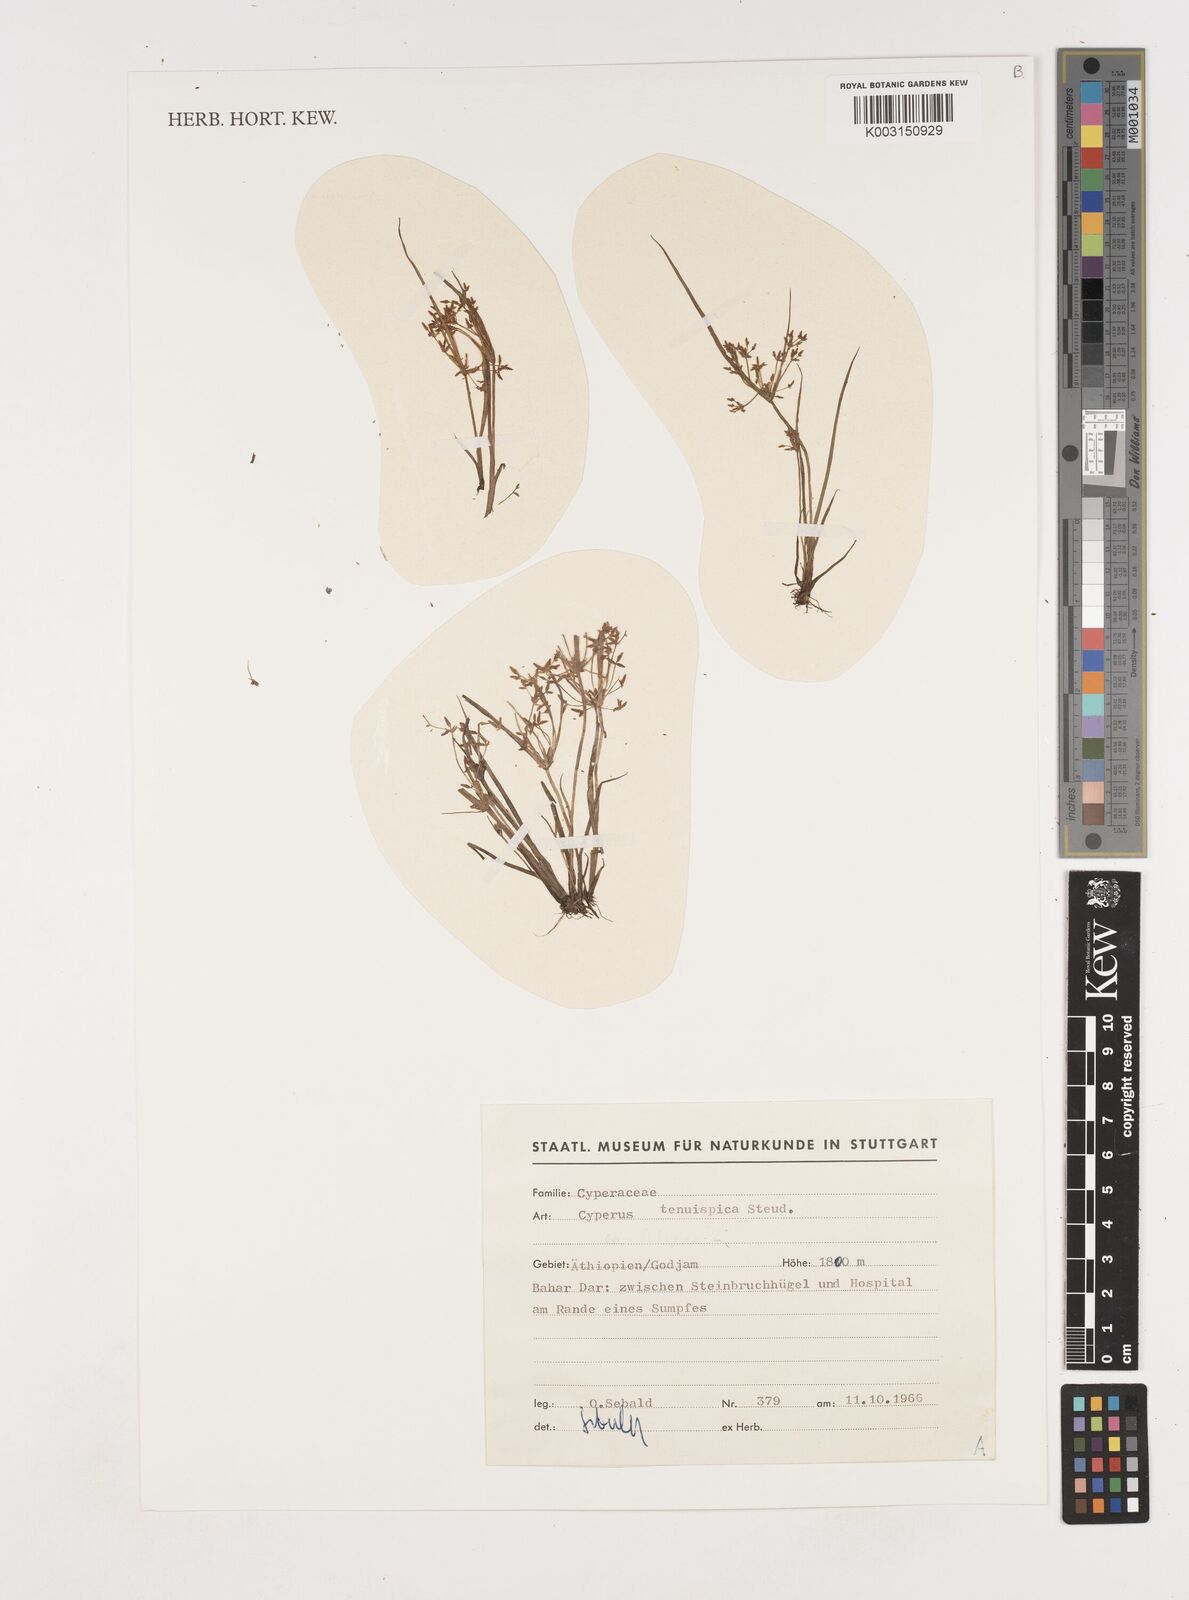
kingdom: Plantae
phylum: Tracheophyta
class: Liliopsida
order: Poales
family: Cyperaceae
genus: Cyperus
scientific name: Cyperus tenuispica
